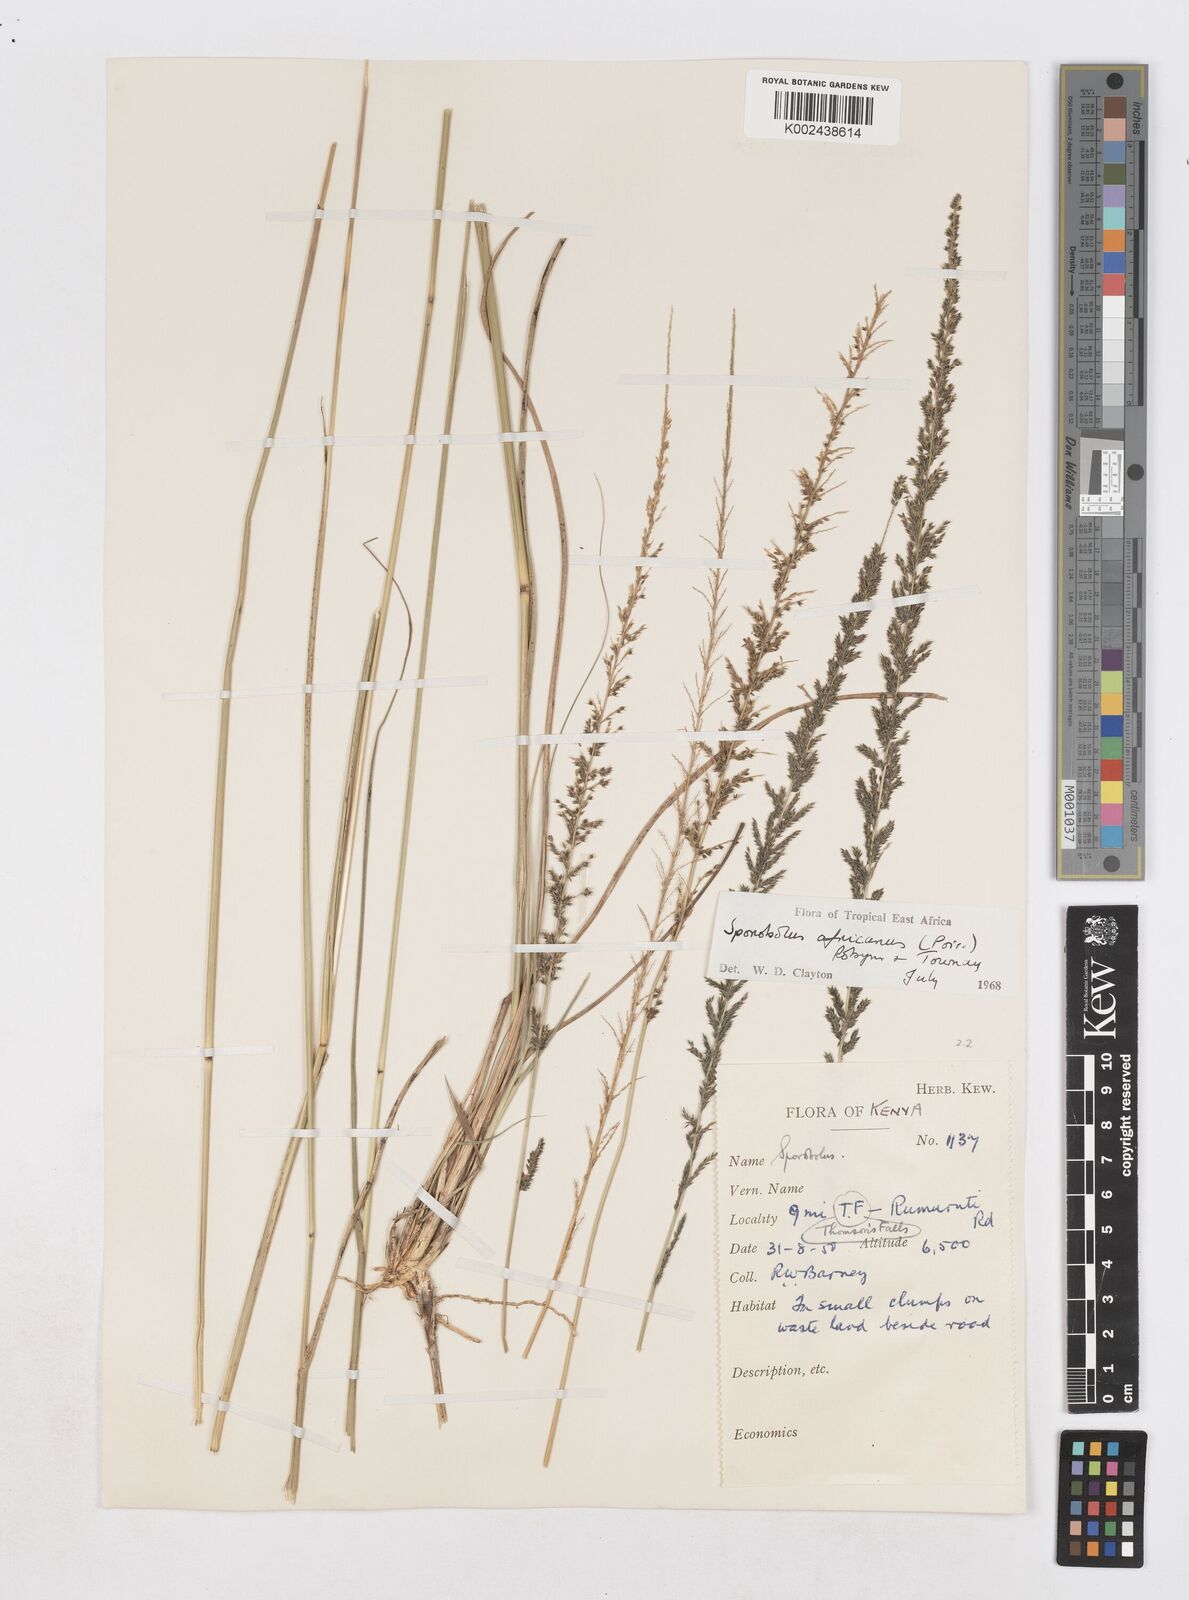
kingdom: Plantae
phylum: Tracheophyta
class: Liliopsida
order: Poales
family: Poaceae
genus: Sporobolus
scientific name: Sporobolus africanus
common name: African dropseed
